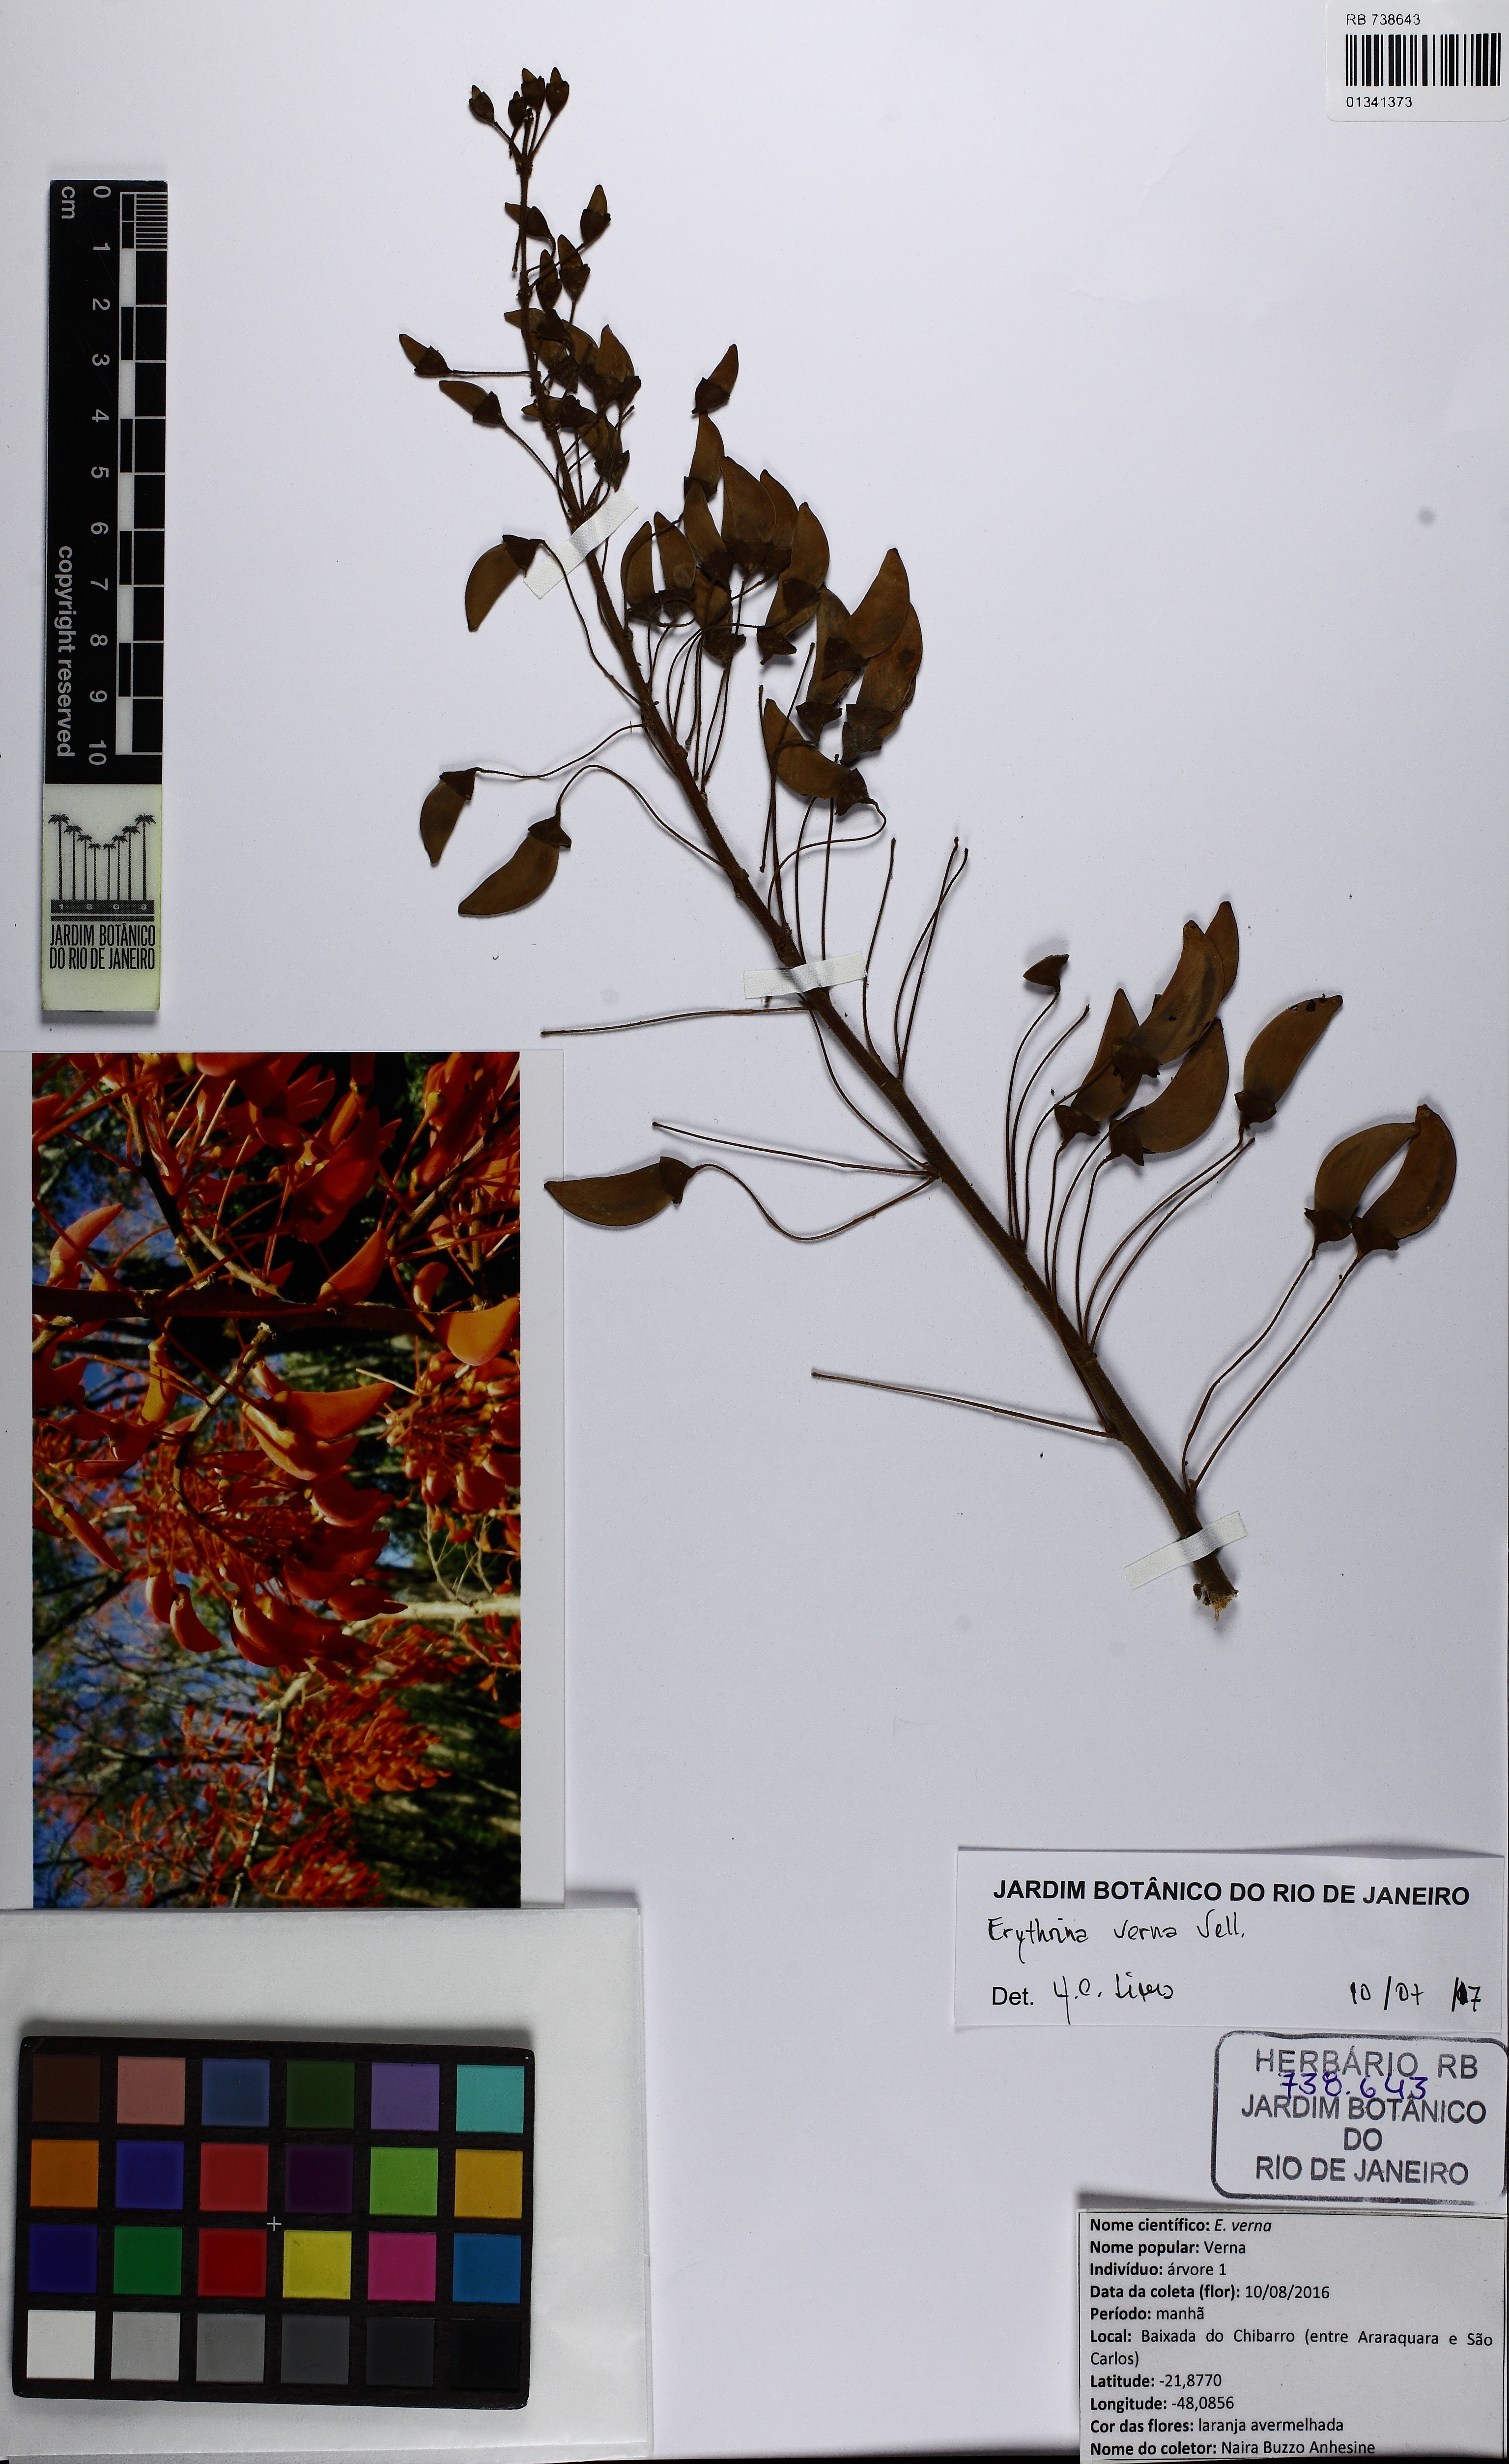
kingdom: Plantae
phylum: Tracheophyta
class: Magnoliopsida
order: Fabales
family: Fabaceae
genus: Erythrina
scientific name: Erythrina verna
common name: Mulungú
